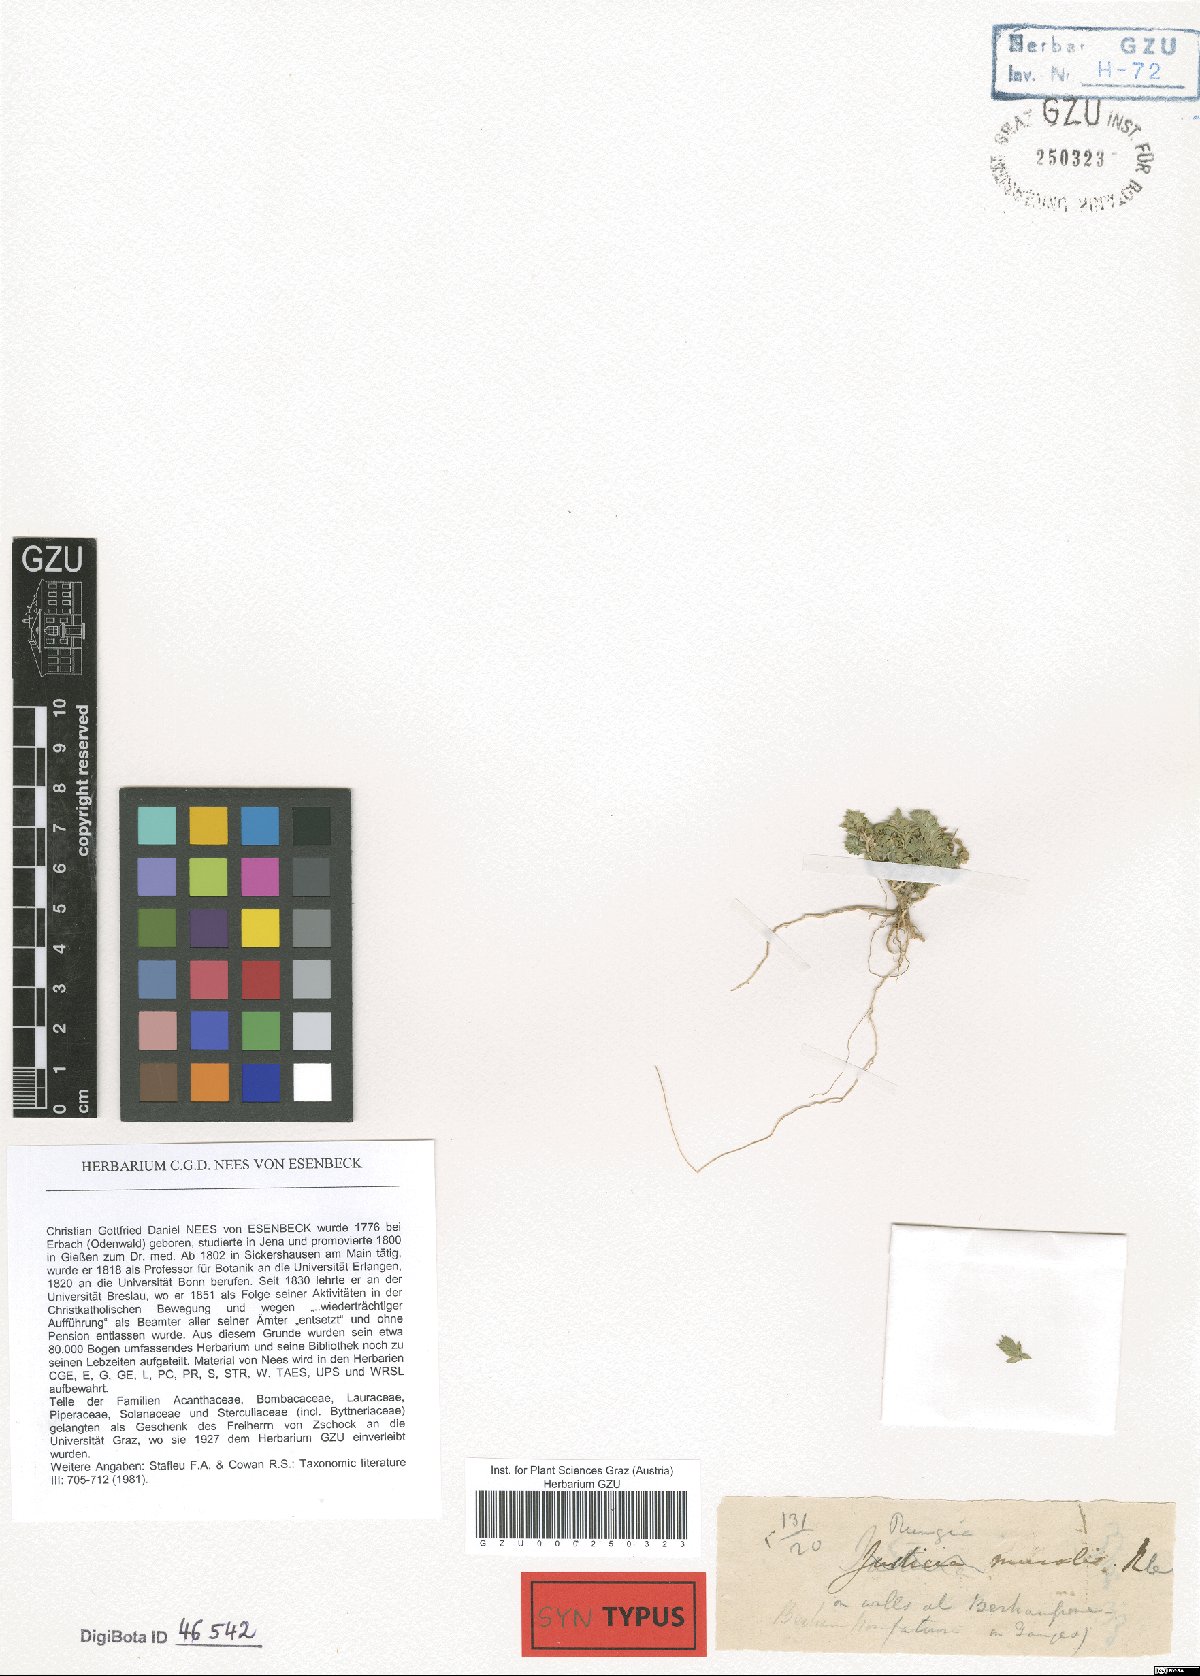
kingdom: Plantae
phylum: Tracheophyta
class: Magnoliopsida
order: Lamiales
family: Acanthaceae
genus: Rungia
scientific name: Rungia pectinata
